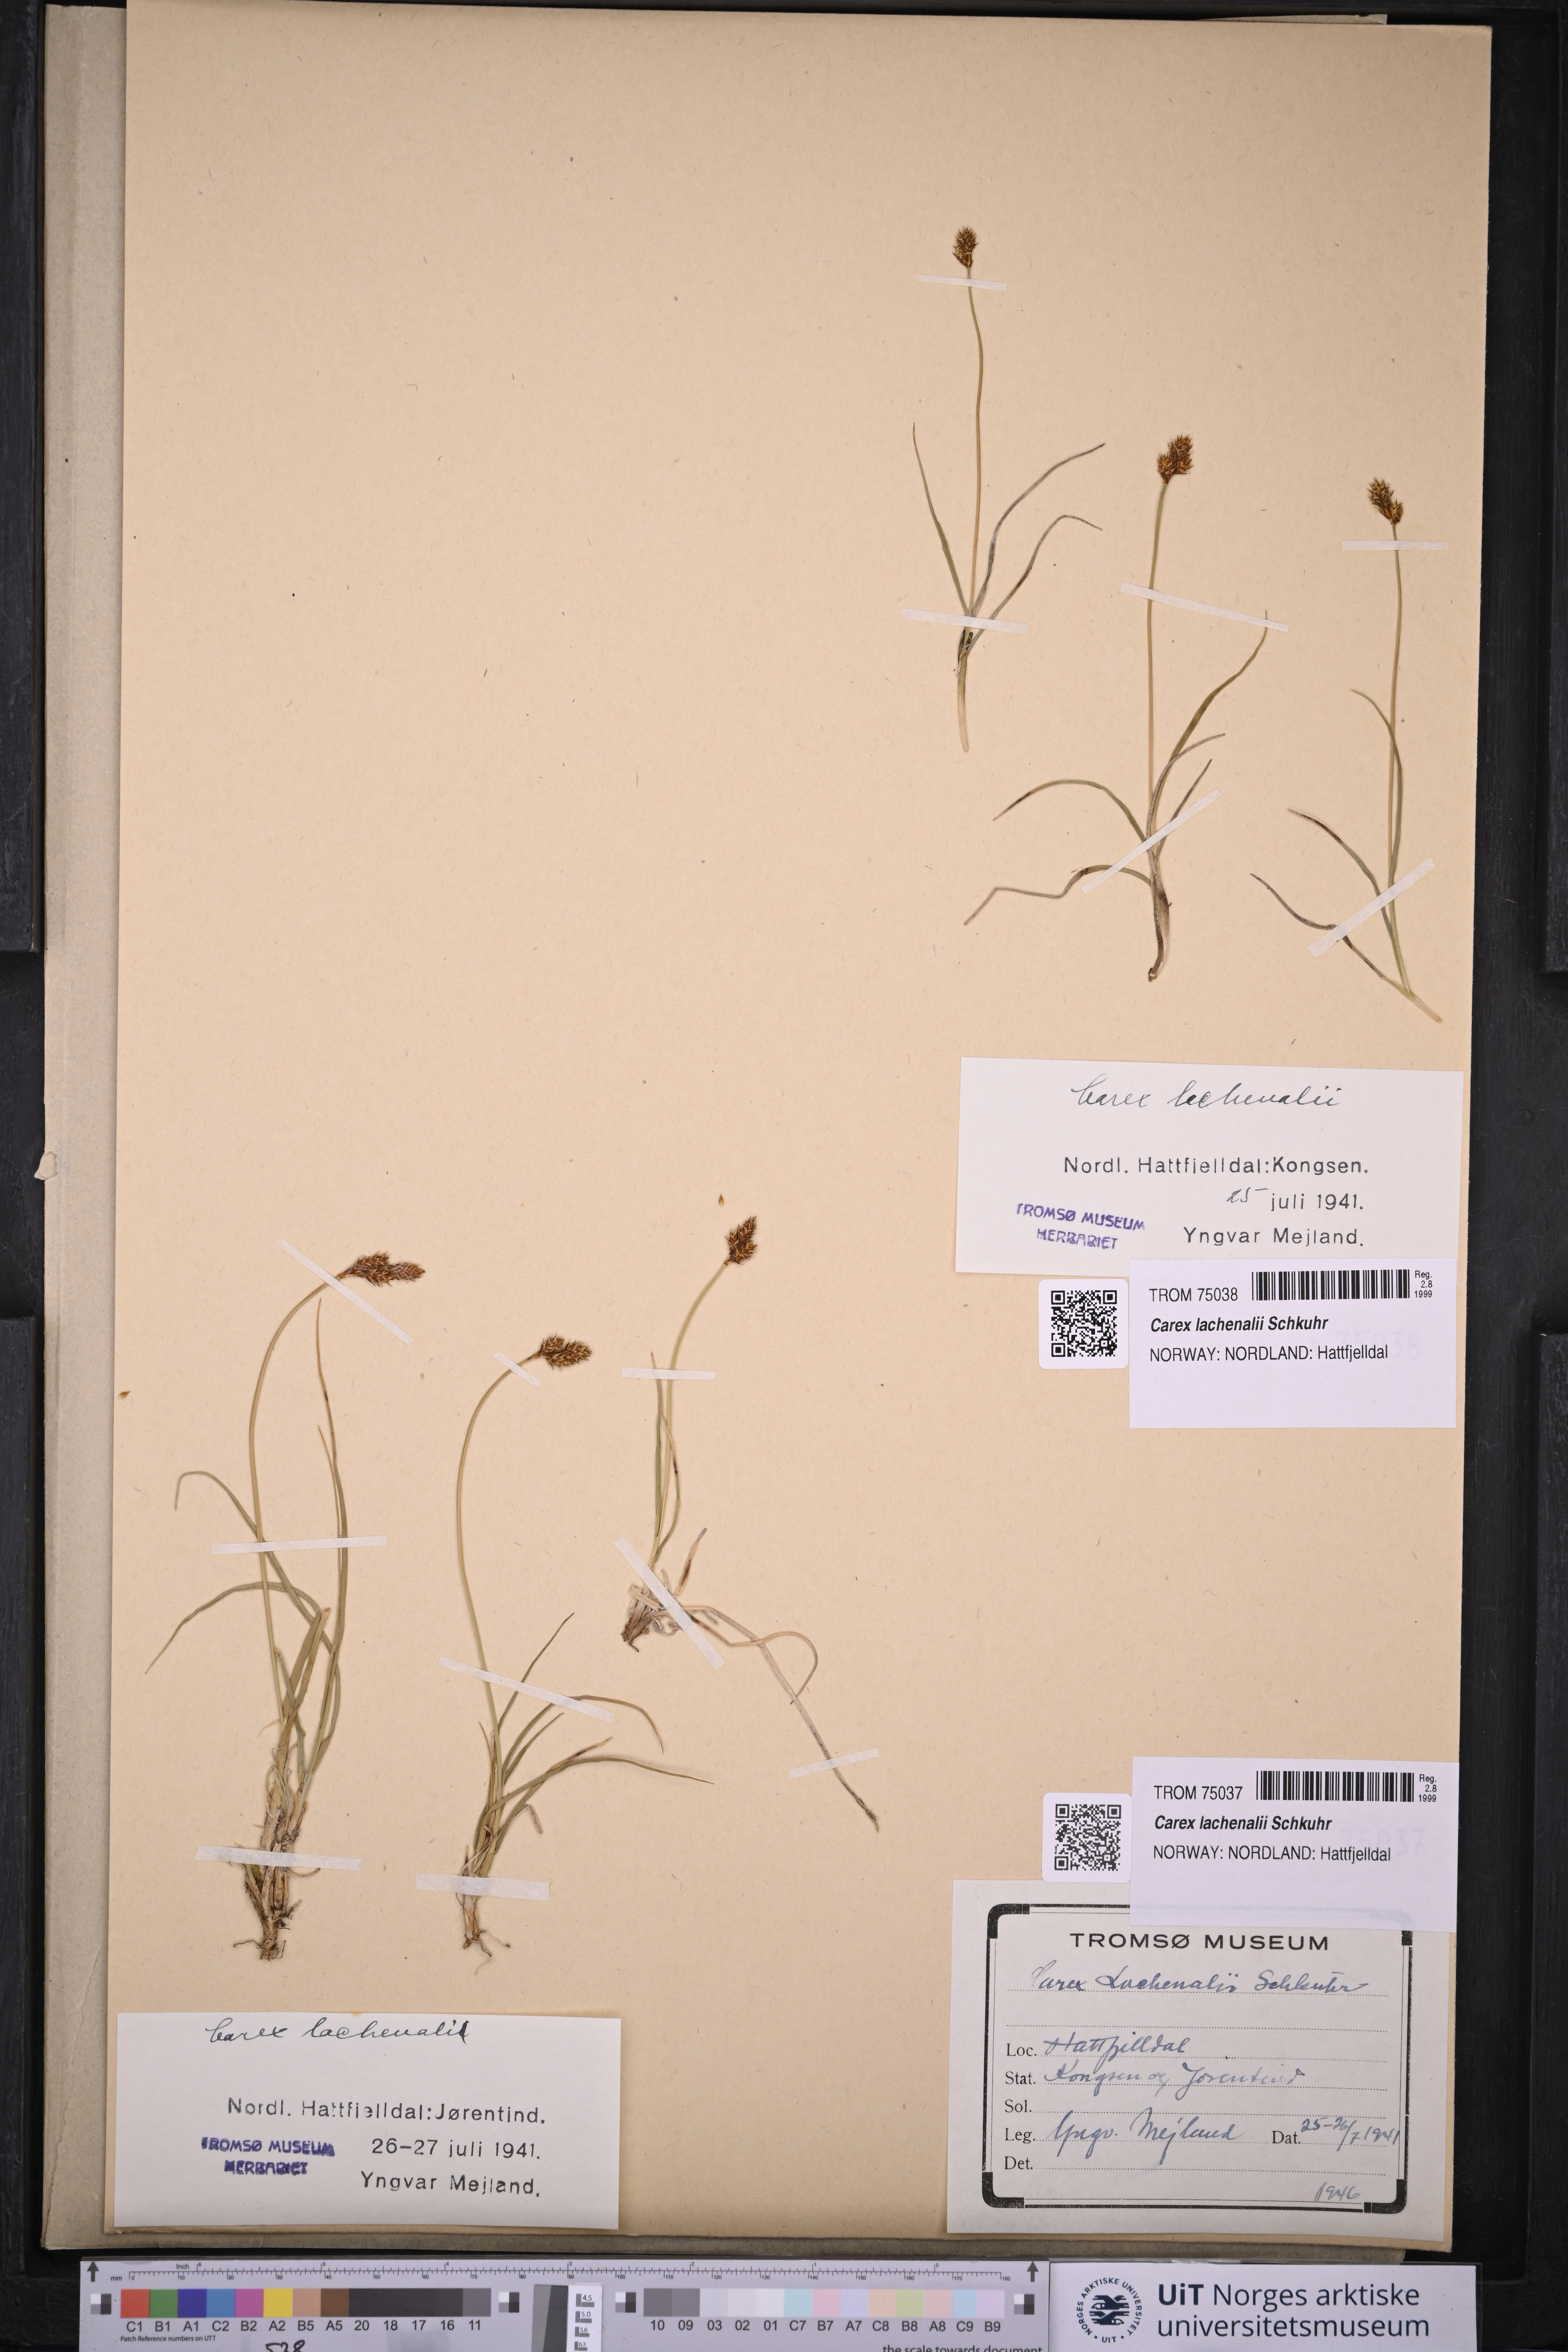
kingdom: Plantae
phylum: Tracheophyta
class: Liliopsida
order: Poales
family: Cyperaceae
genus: Carex
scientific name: Carex lachenalii
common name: Hare's-foot sedge
